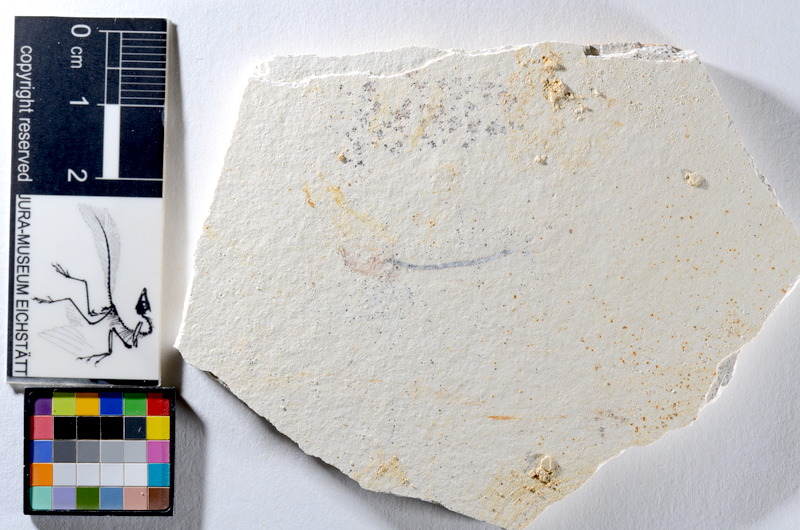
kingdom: Animalia
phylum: Chordata
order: Salmoniformes
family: Orthogonikleithridae
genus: Orthogonikleithrus
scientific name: Orthogonikleithrus hoelli
